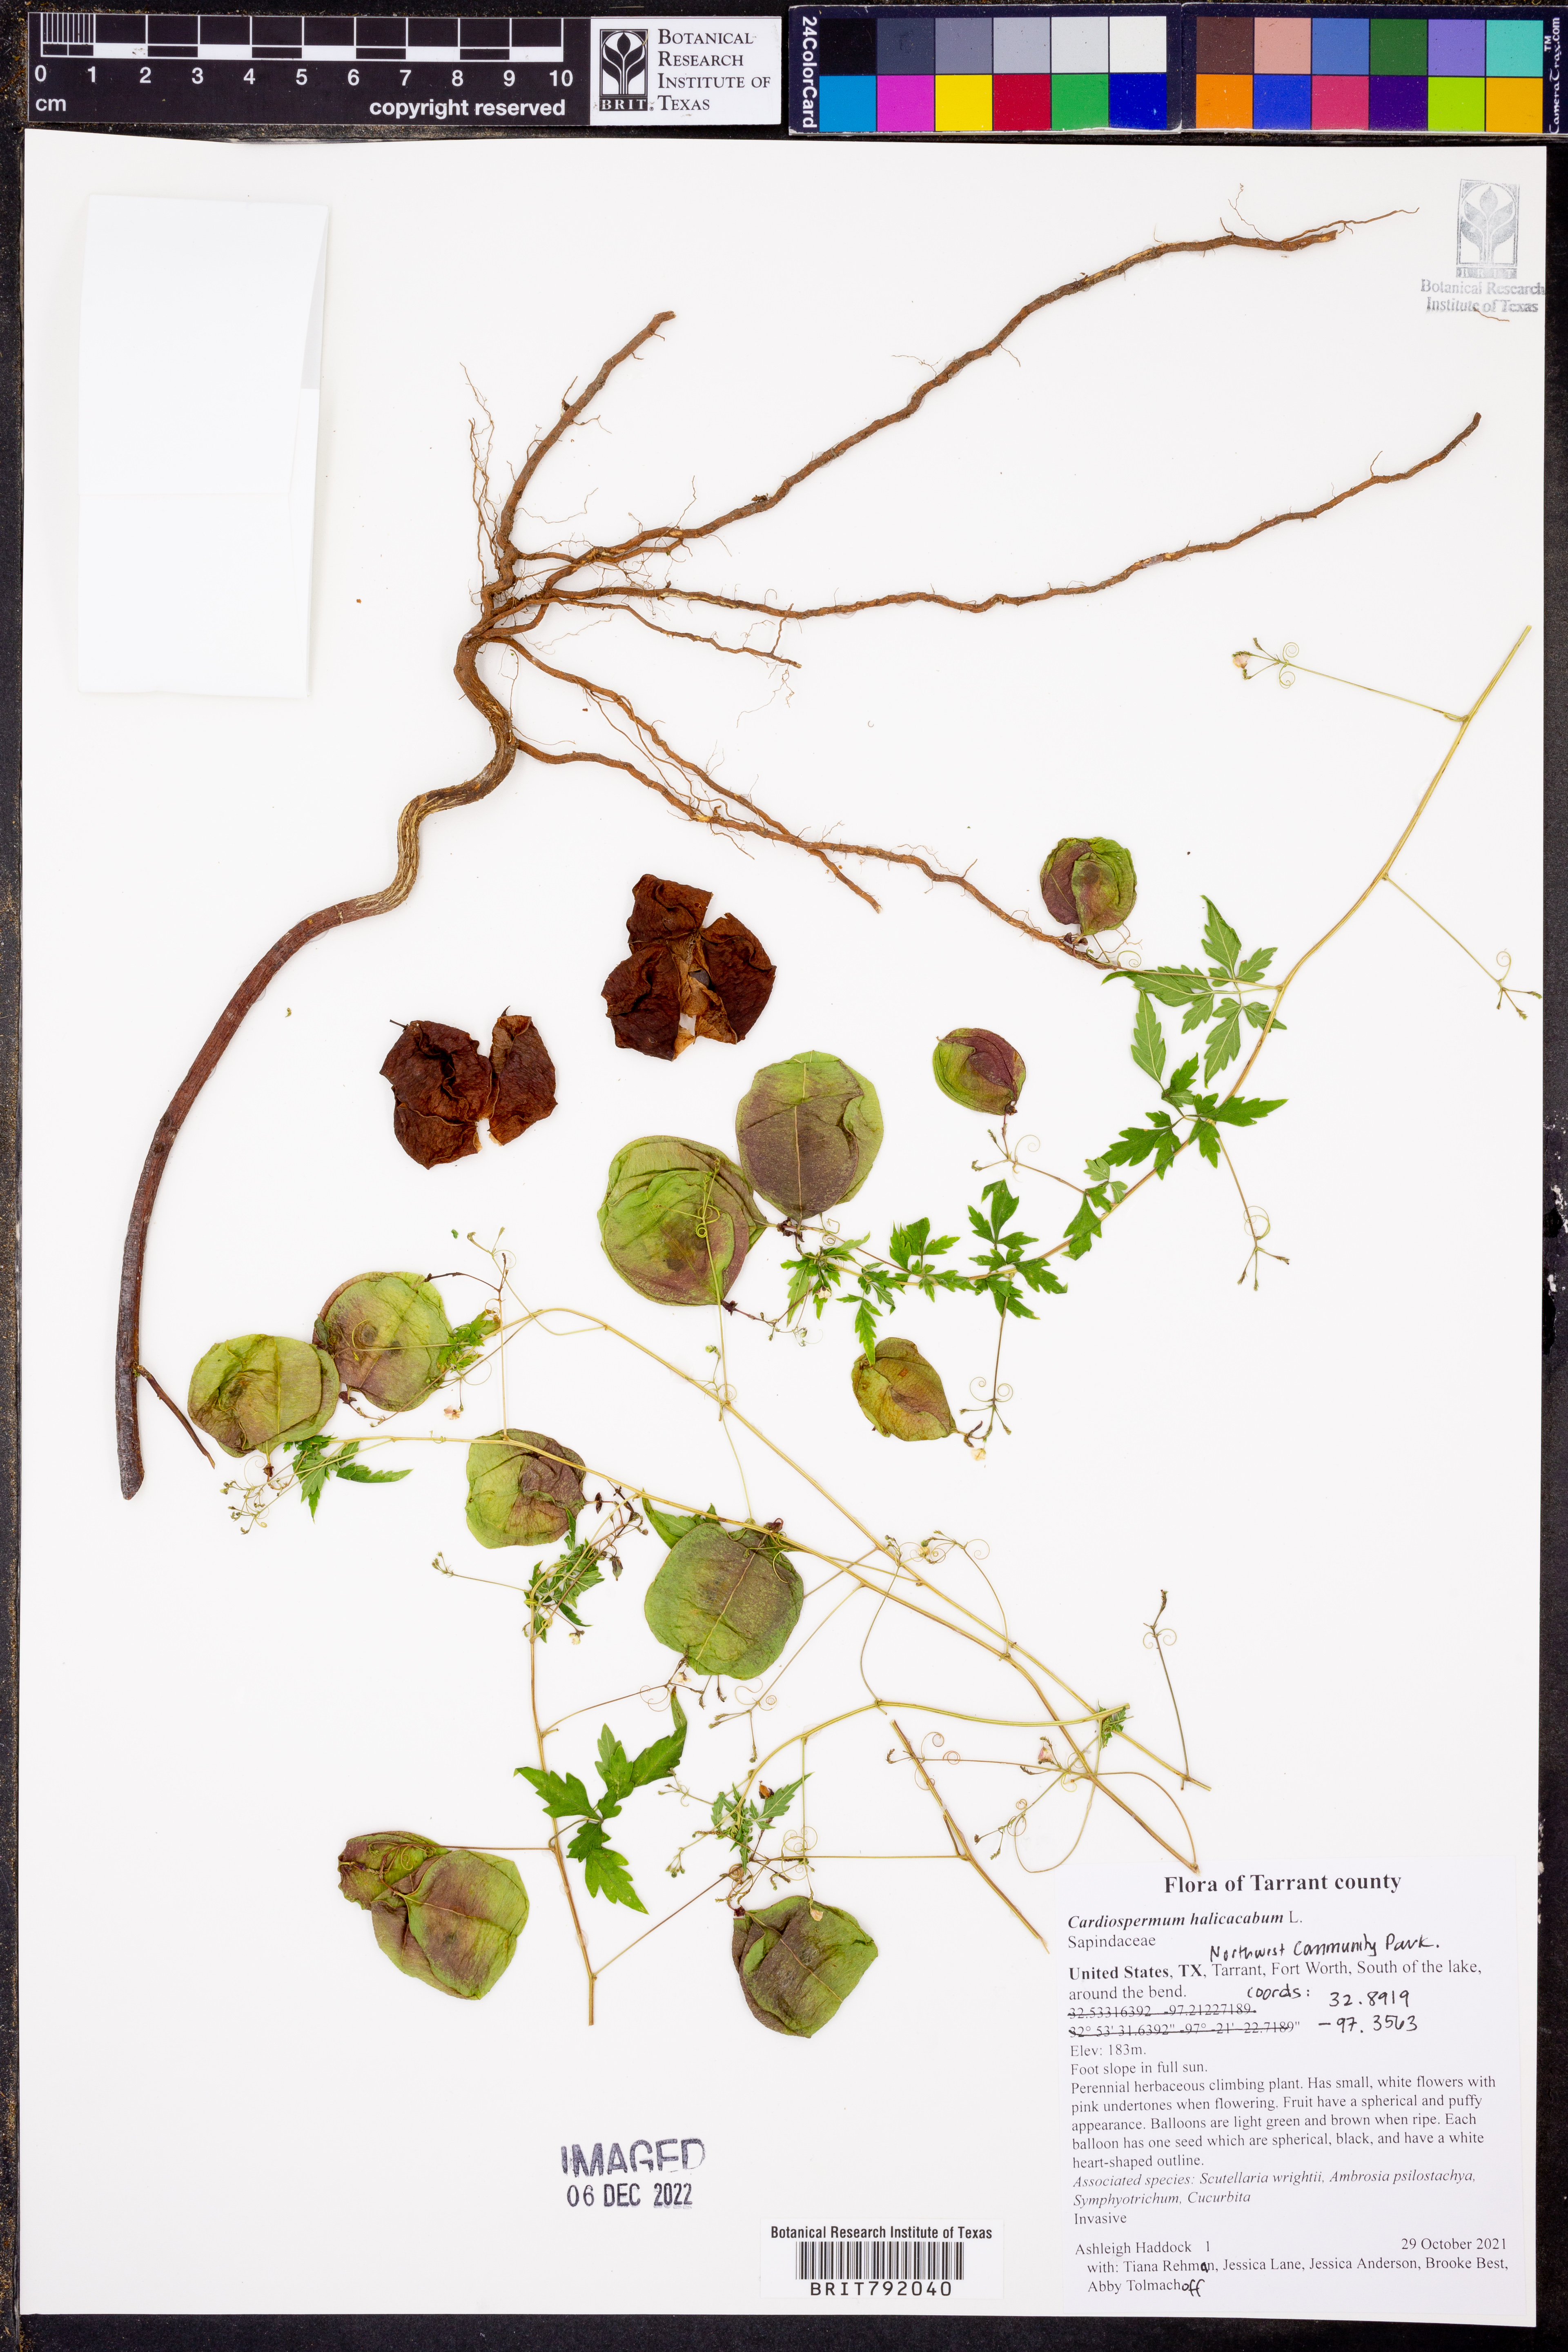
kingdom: Plantae
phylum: Tracheophyta
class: Magnoliopsida
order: Sapindales
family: Sapindaceae
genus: Cardiospermum
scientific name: Cardiospermum halicacabum
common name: Balloon vine
